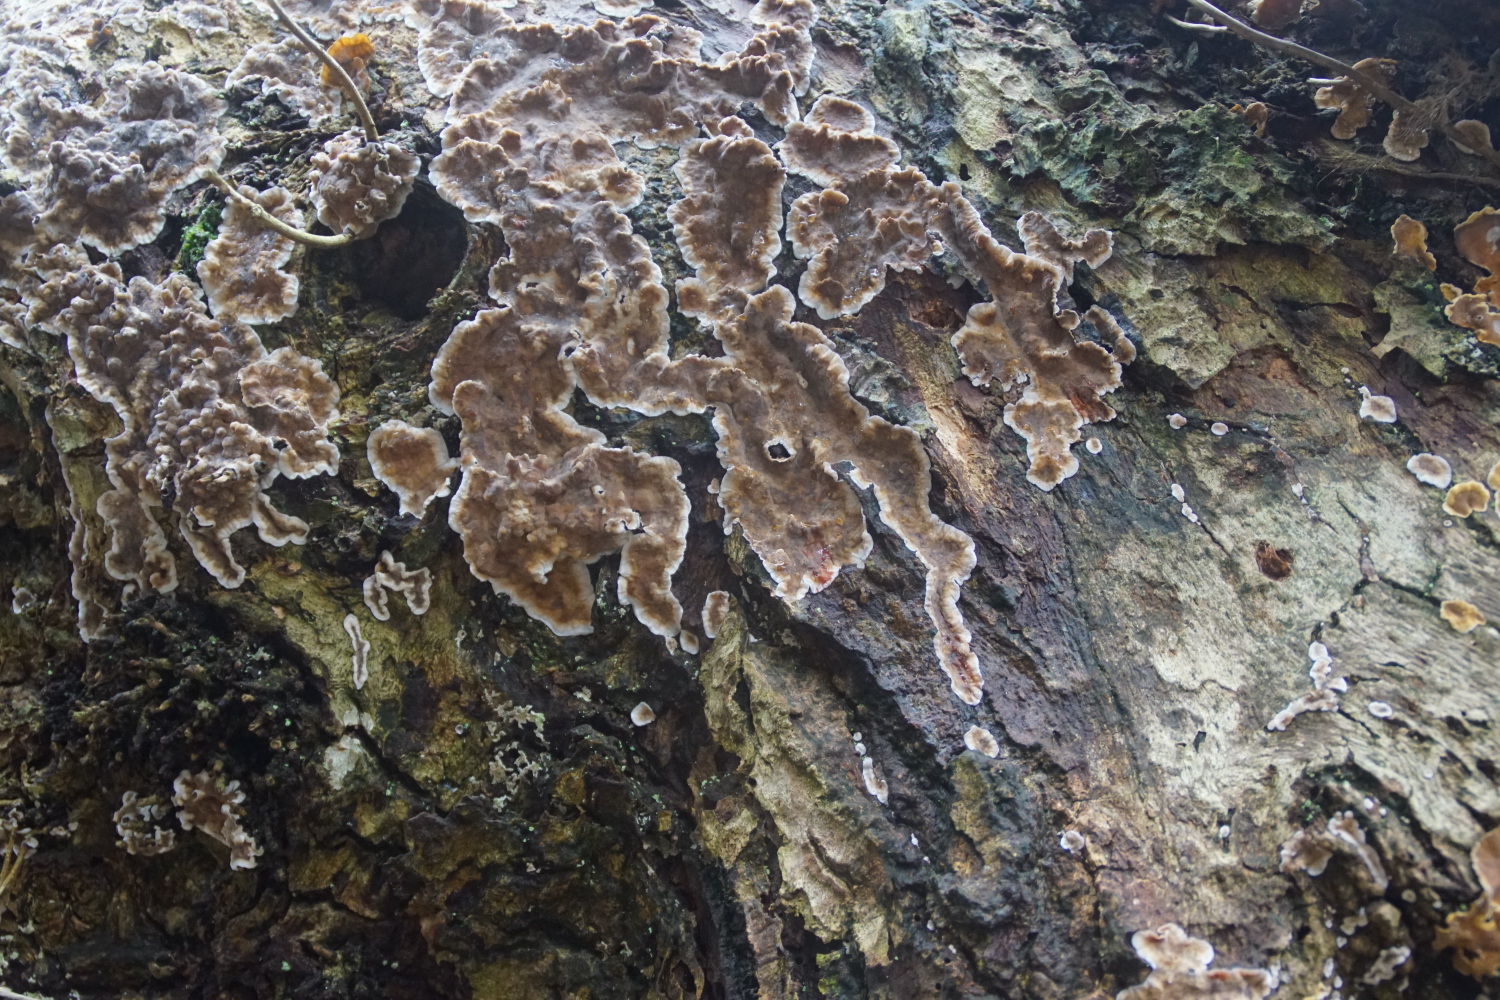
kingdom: Fungi
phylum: Basidiomycota
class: Agaricomycetes
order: Russulales
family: Stereaceae
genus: Stereum
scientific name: Stereum gausapatum
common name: tynd lædersvamp
